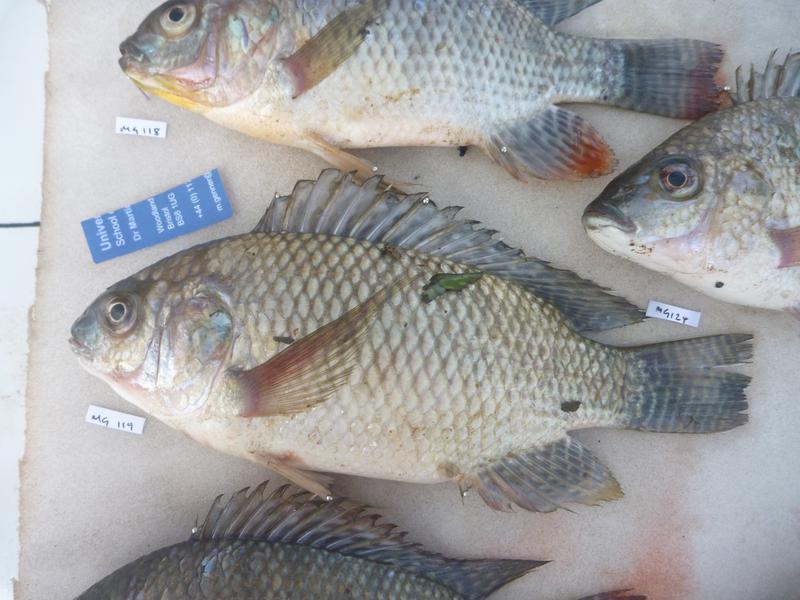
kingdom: Animalia
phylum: Chordata
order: Perciformes
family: Cichlidae
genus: Oreochromis
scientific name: Oreochromis niloticus
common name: Nile tilapia
